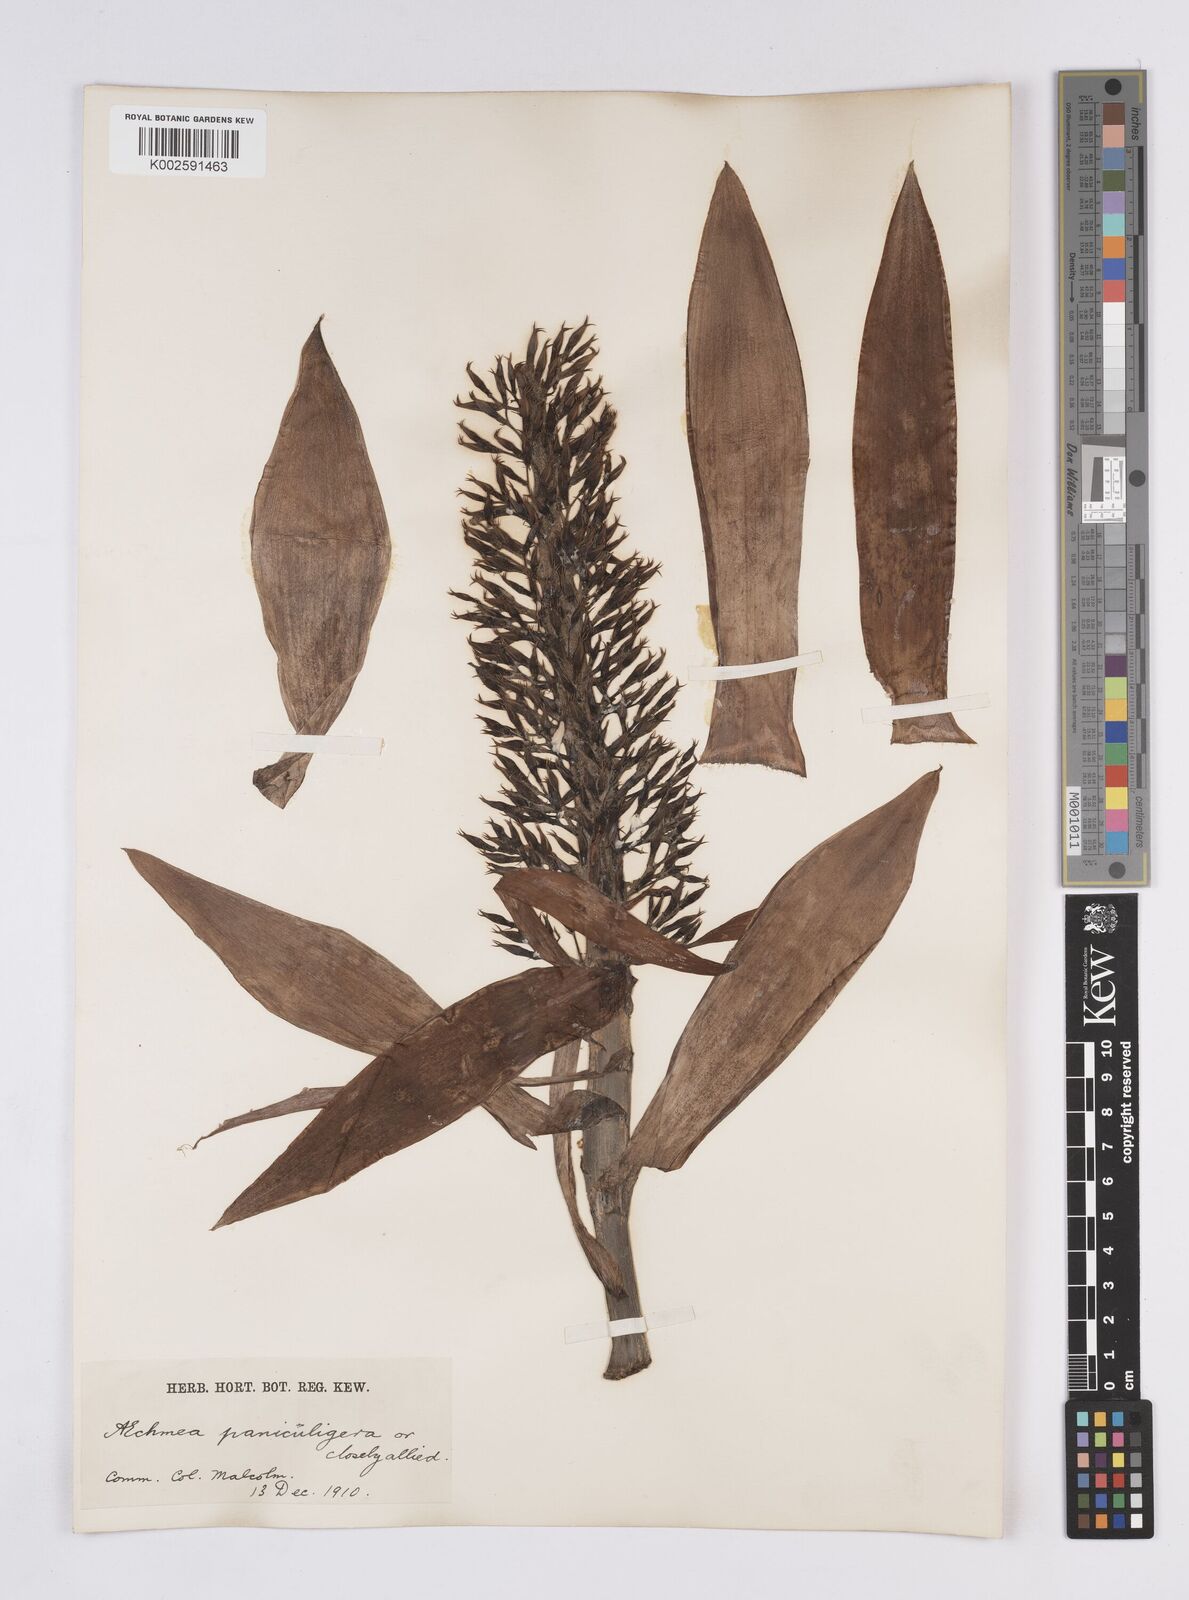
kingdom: Plantae
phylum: Tracheophyta
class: Liliopsida
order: Poales
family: Bromeliaceae
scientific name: Bromeliaceae
